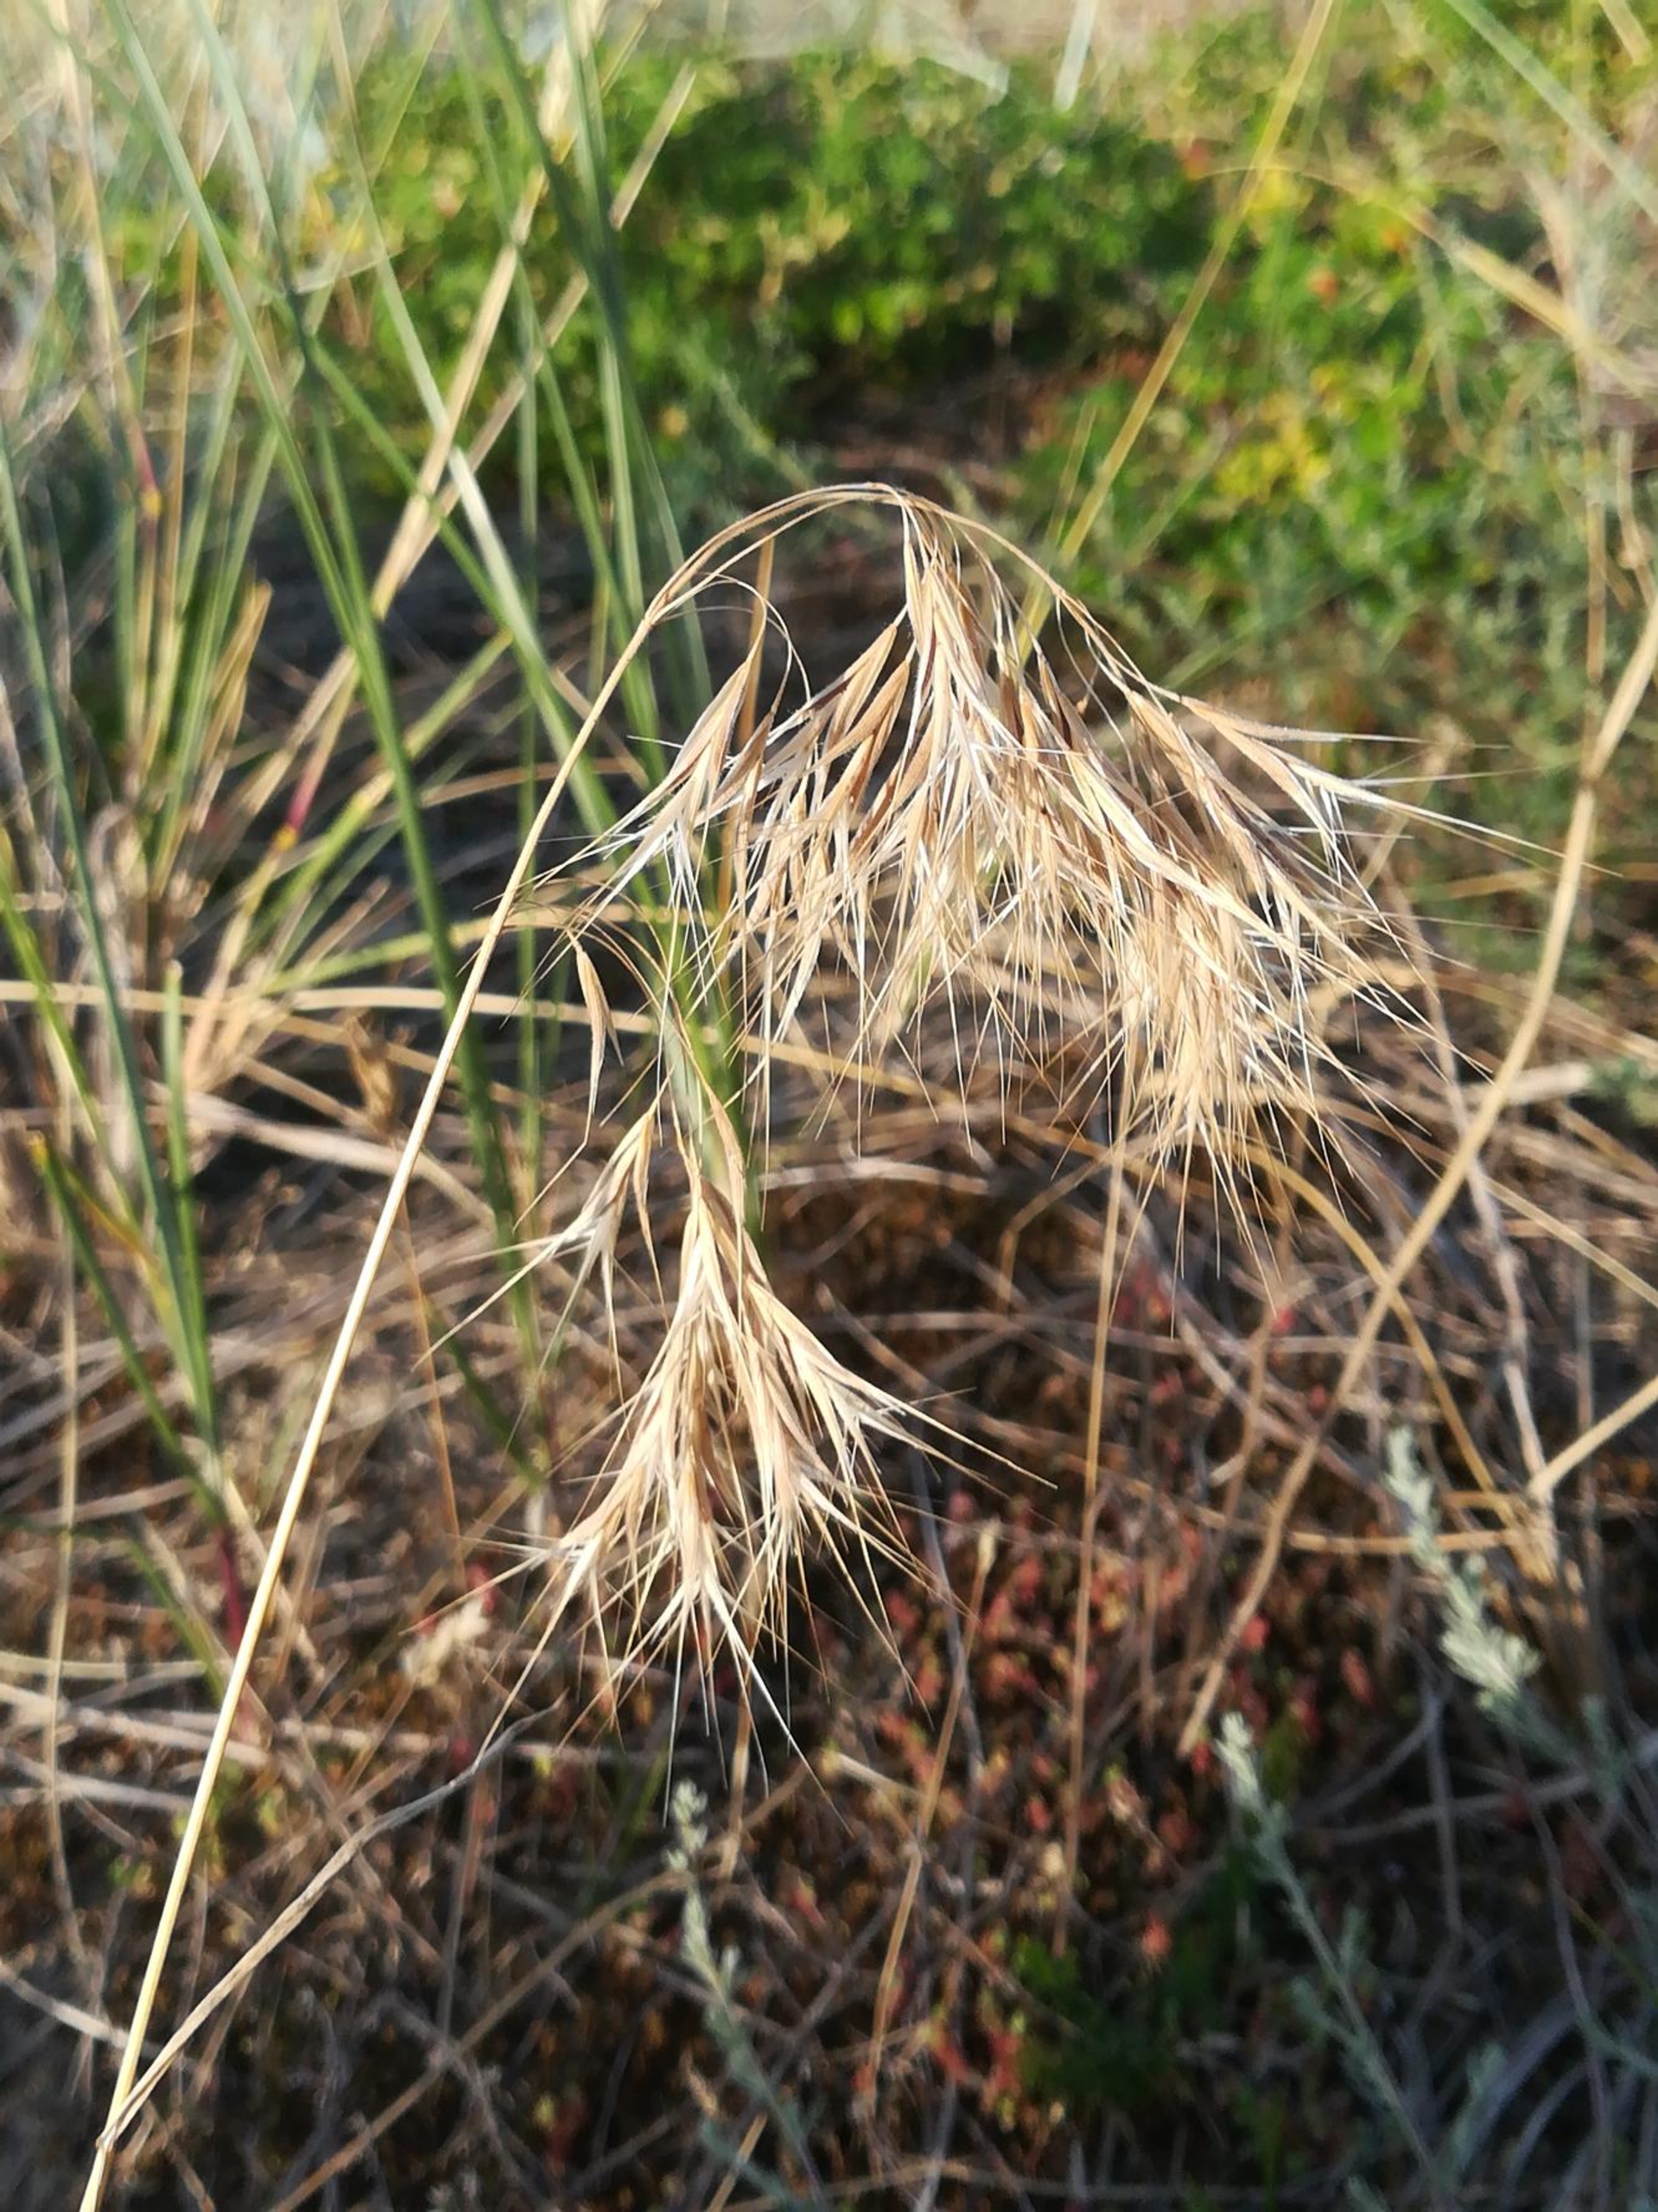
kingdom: Plantae
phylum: Tracheophyta
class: Liliopsida
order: Poales
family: Poaceae
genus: Bromus
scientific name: Bromus tectorum
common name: Tag-hejre
